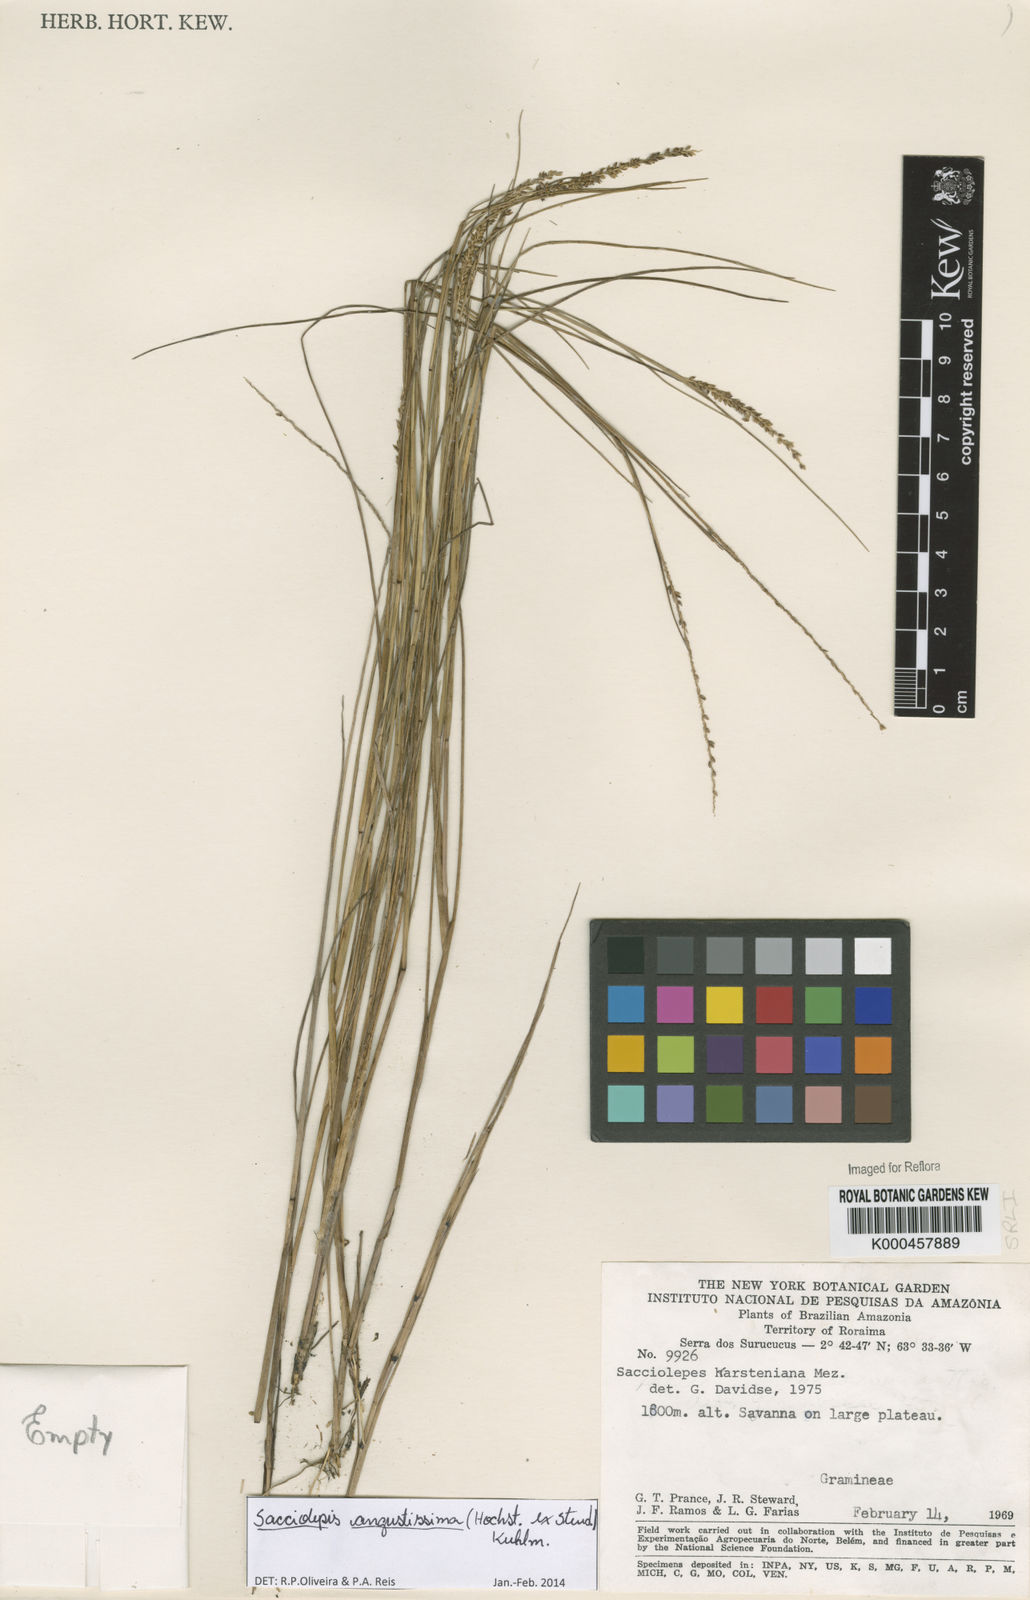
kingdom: Plantae
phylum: Tracheophyta
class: Liliopsida
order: Poales
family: Poaceae
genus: Sacciolepis
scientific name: Sacciolepis angustissima
